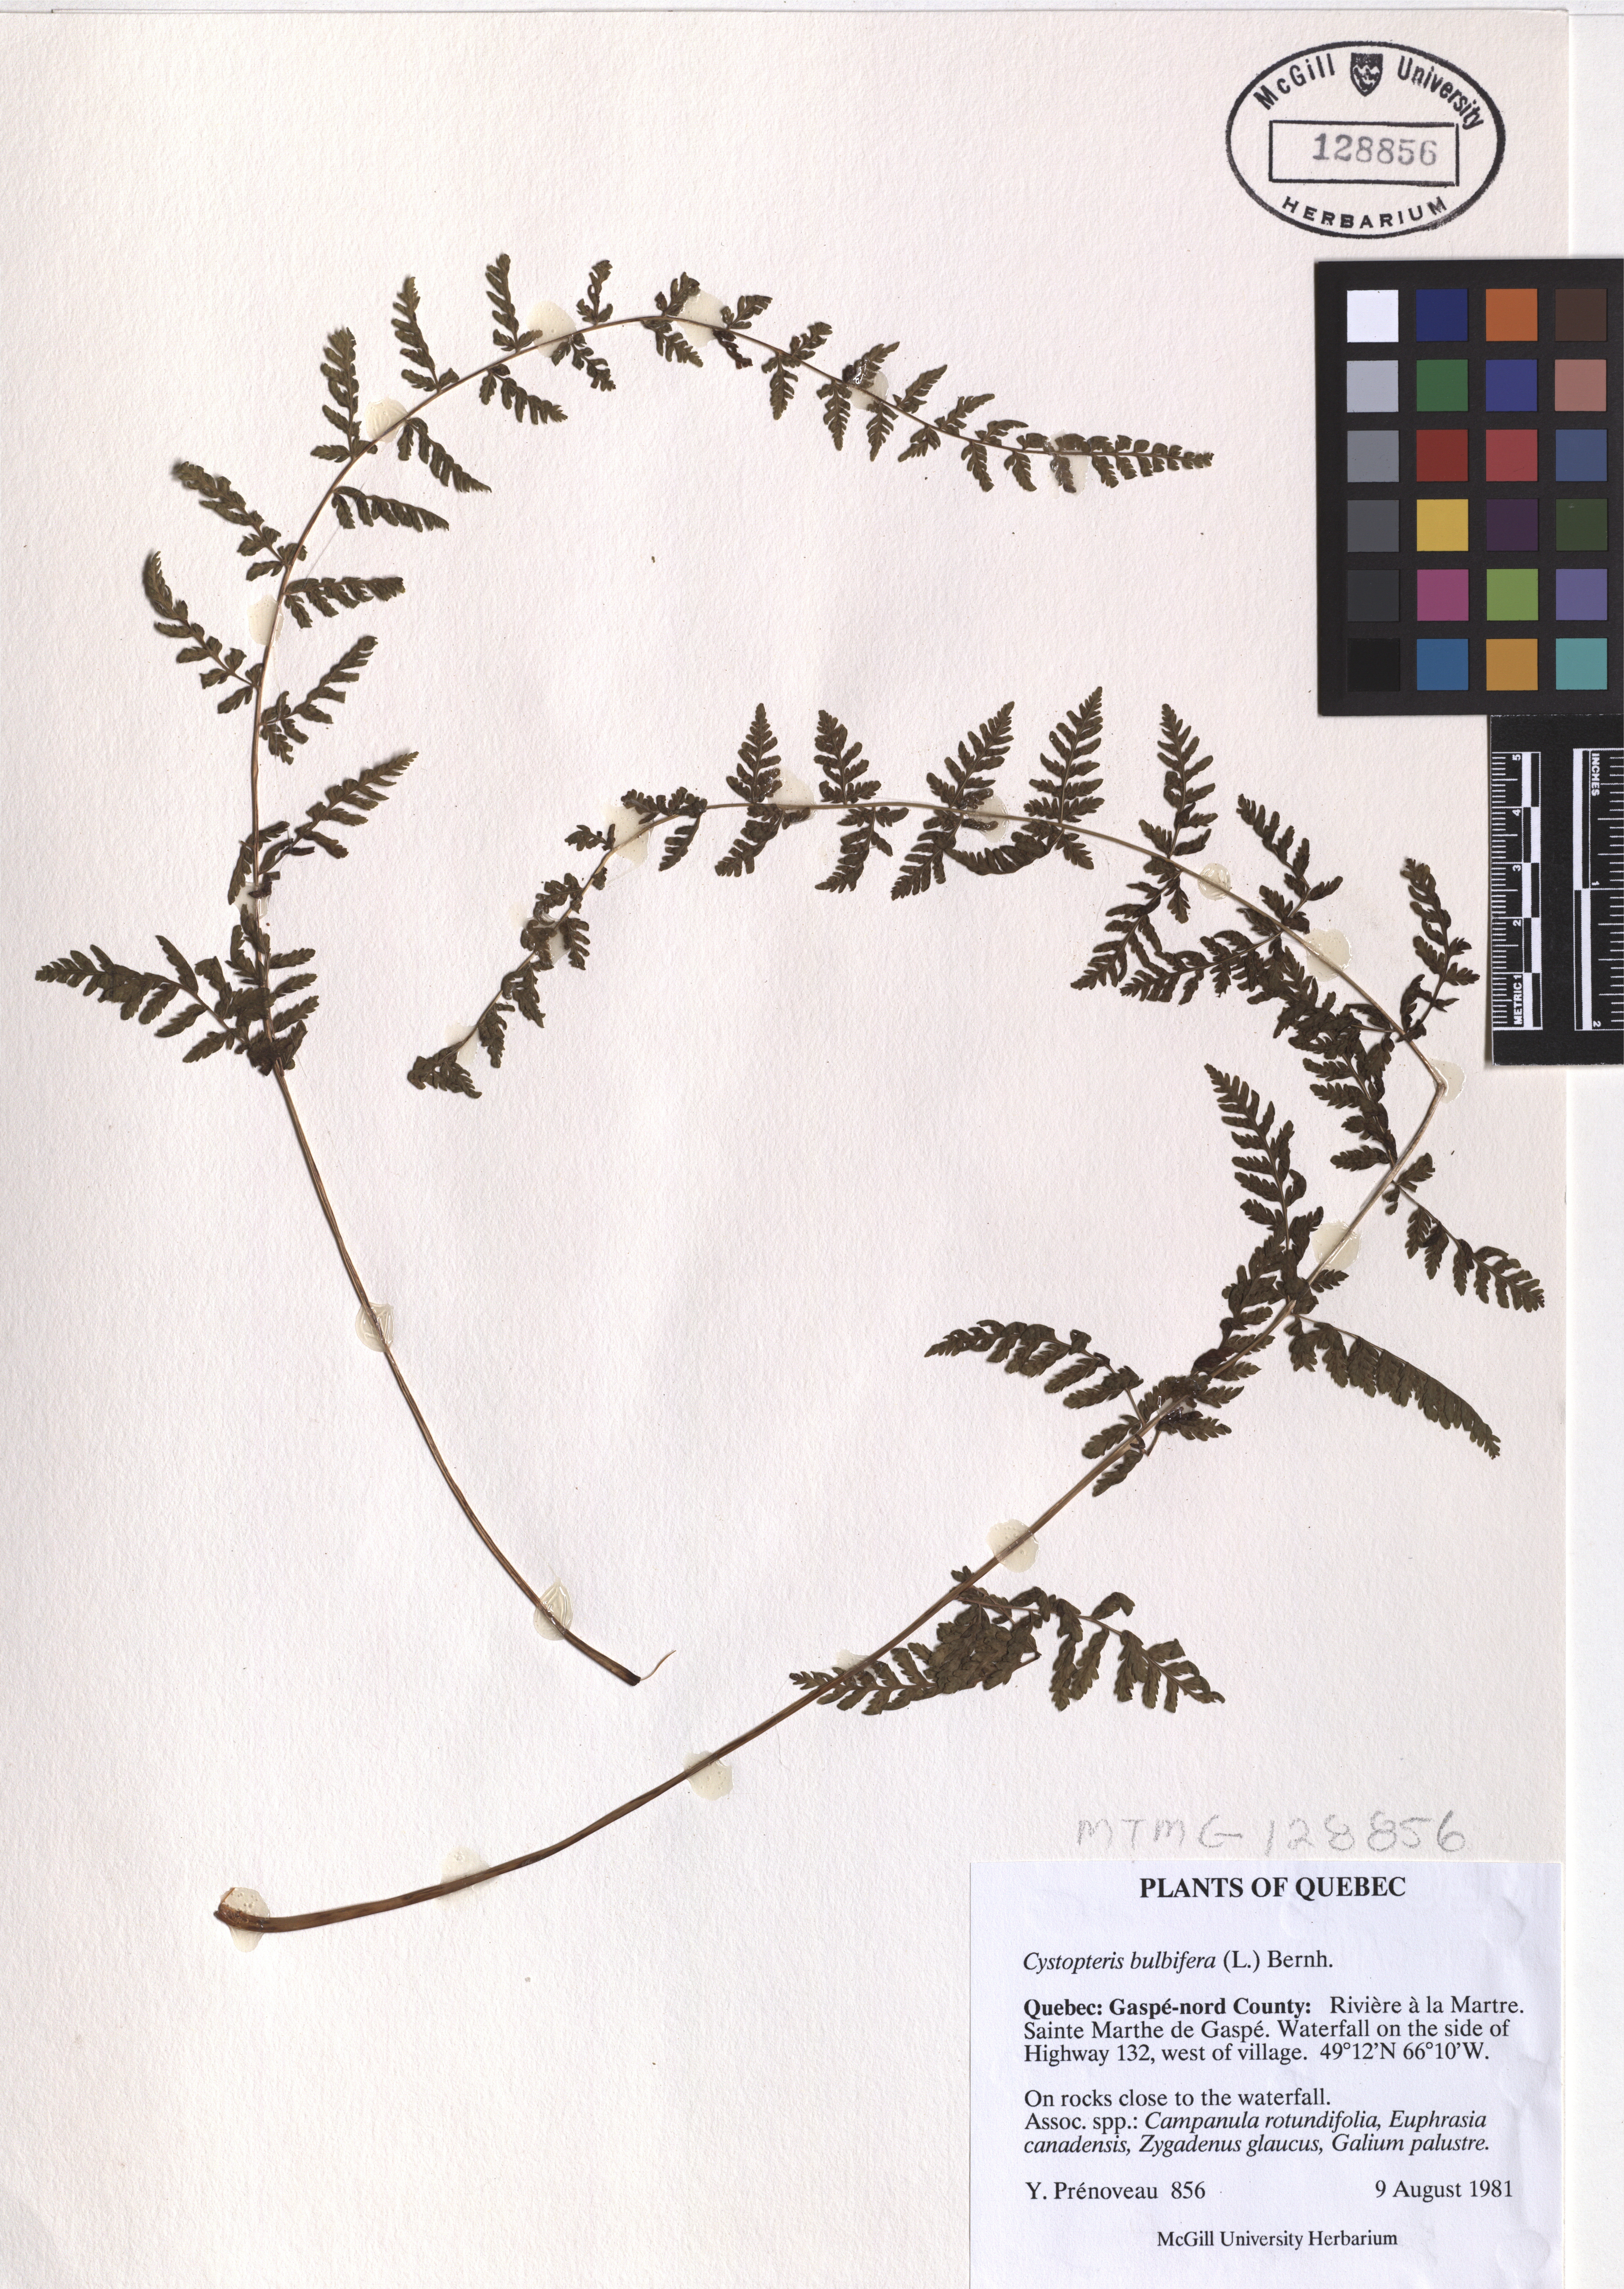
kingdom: Plantae
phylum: Tracheophyta
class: Polypodiopsida
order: Polypodiales
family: Cystopteridaceae
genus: Cystopteris
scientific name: Cystopteris bulbifera
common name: Bulblet bladder fern
